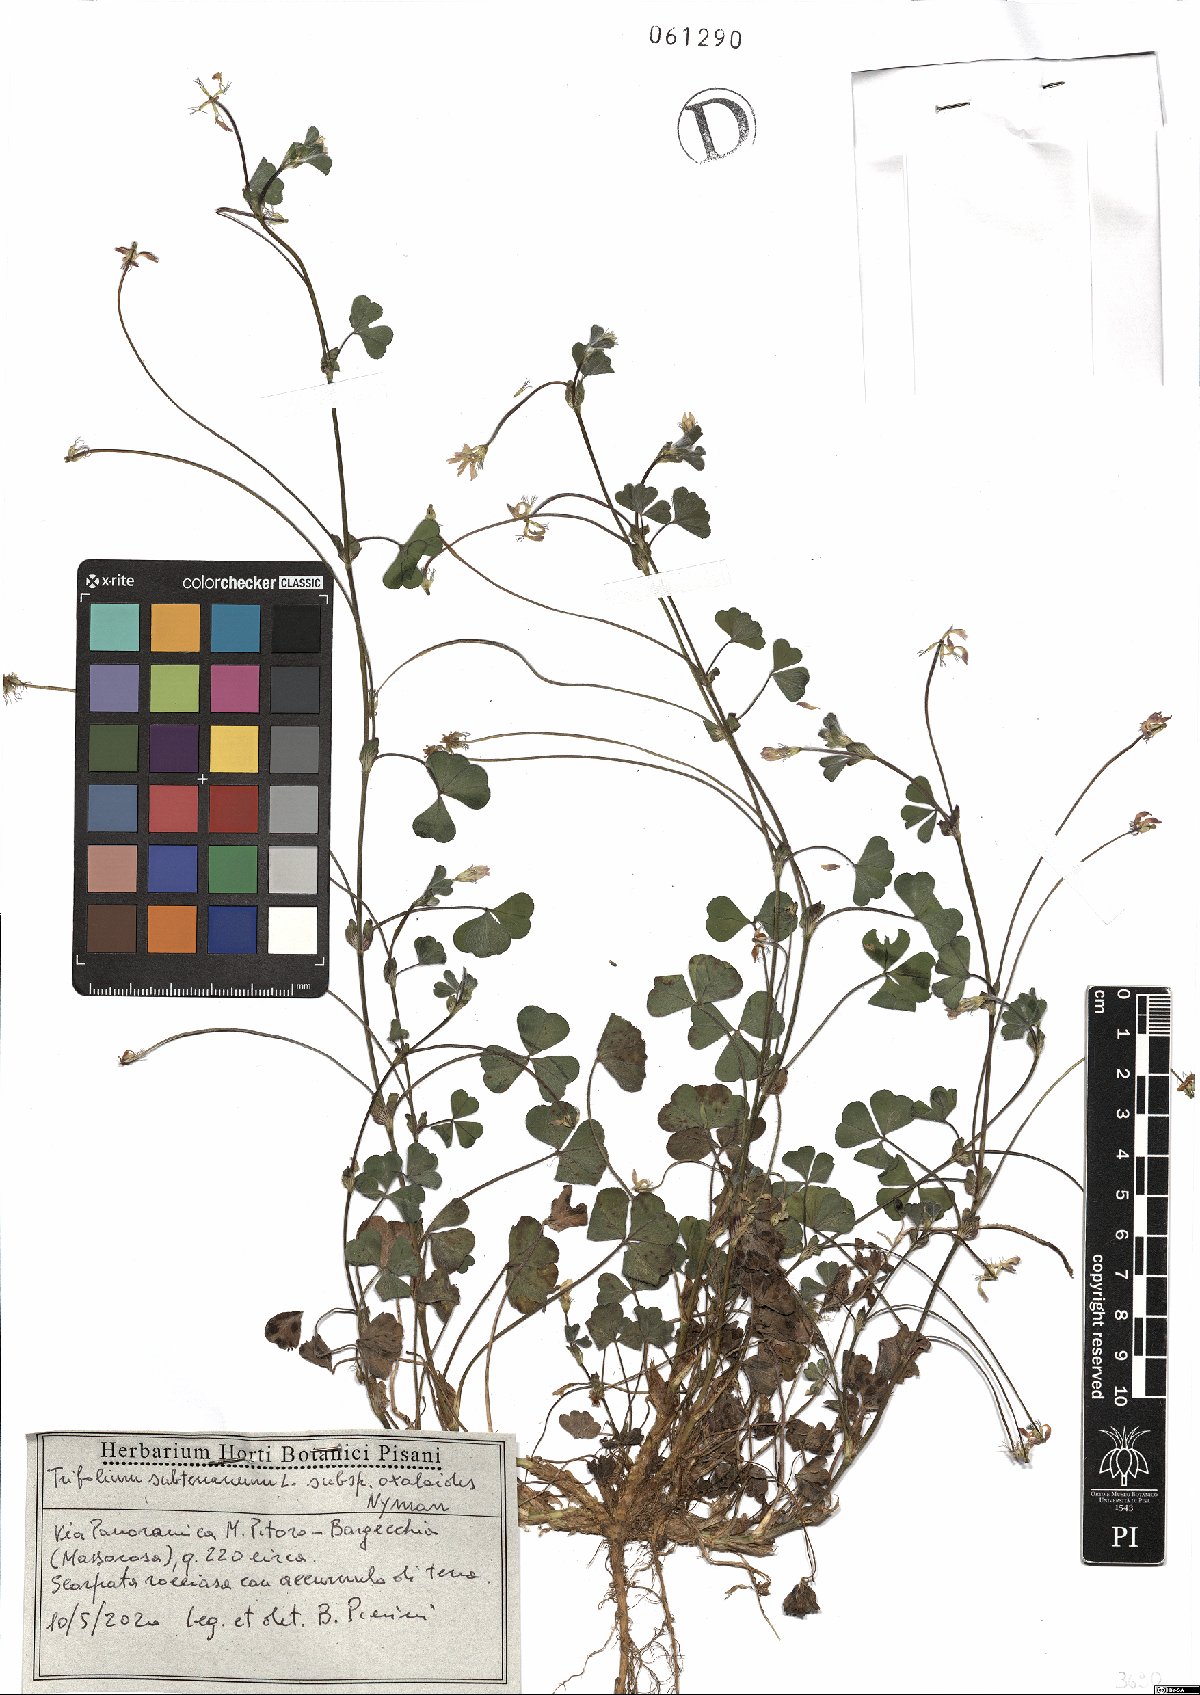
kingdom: Plantae
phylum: Tracheophyta
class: Magnoliopsida
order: Fabales
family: Fabaceae
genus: Trifolium
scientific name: Trifolium subterraneum
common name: Subterranean clover
